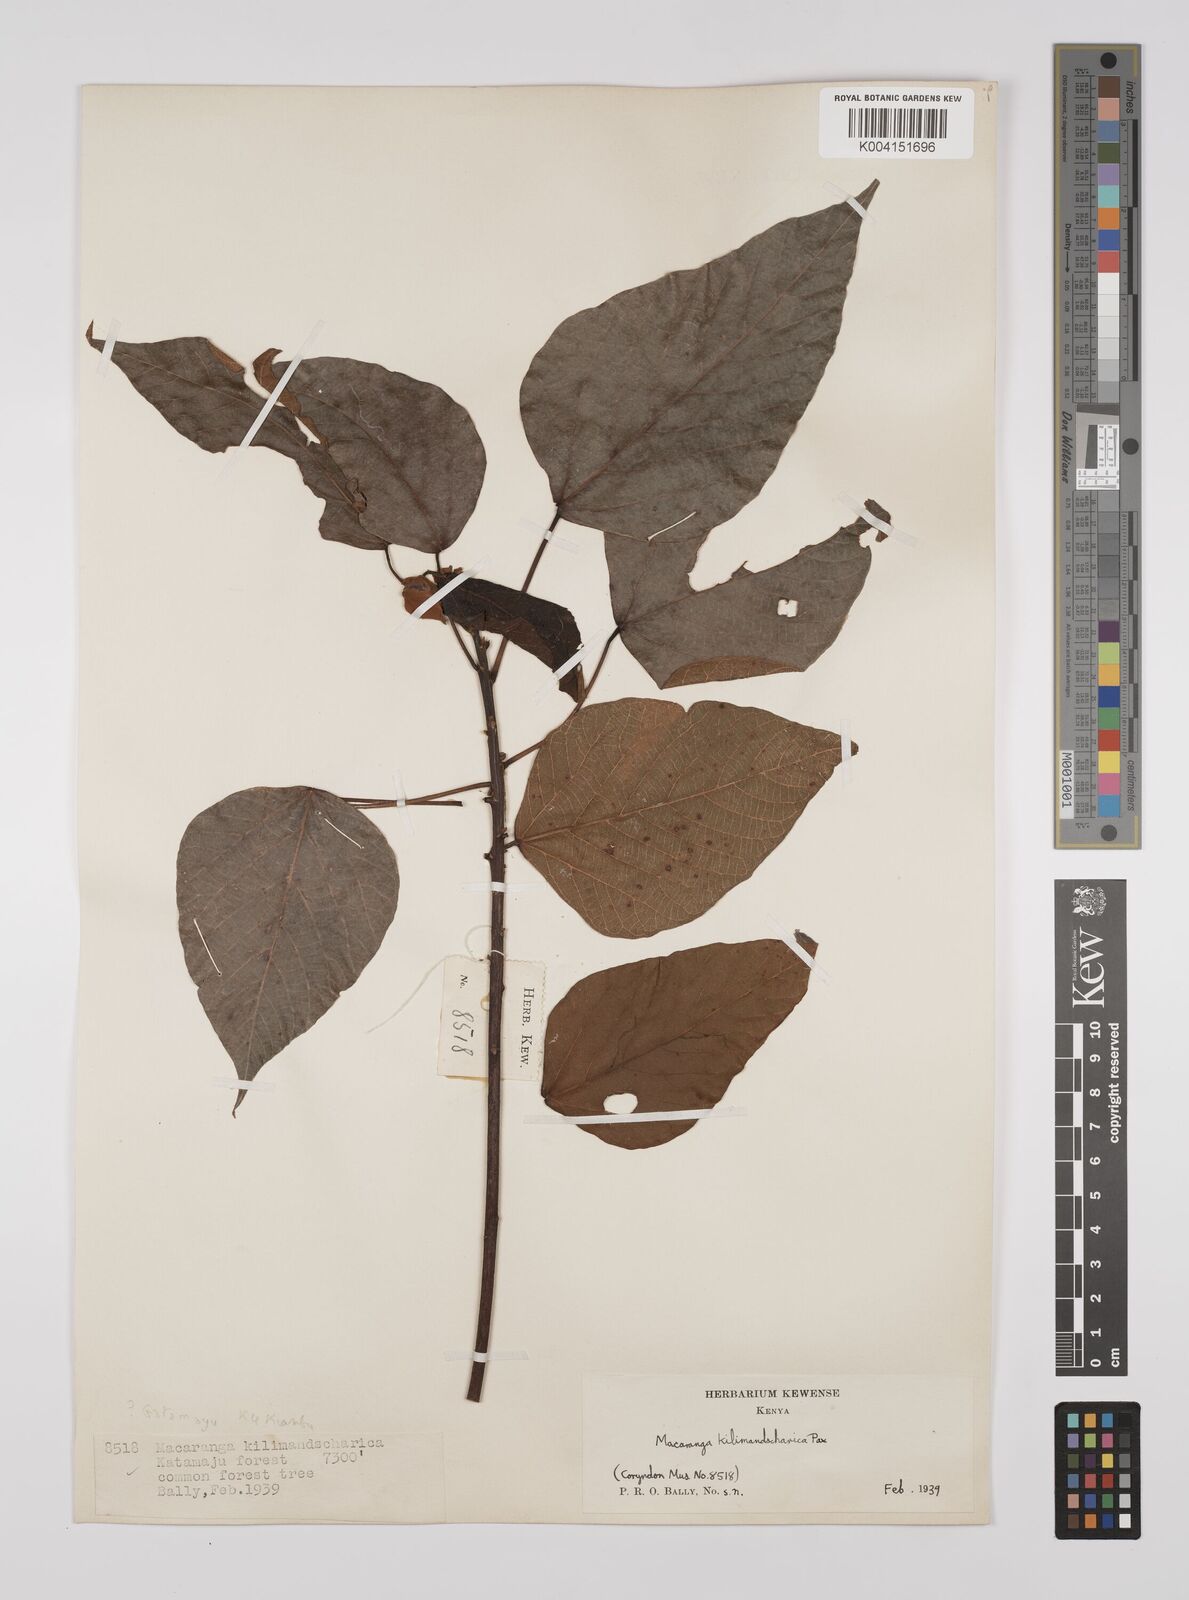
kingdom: Plantae
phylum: Tracheophyta
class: Magnoliopsida
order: Malpighiales
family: Euphorbiaceae
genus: Macaranga
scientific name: Macaranga kilimandscharica
